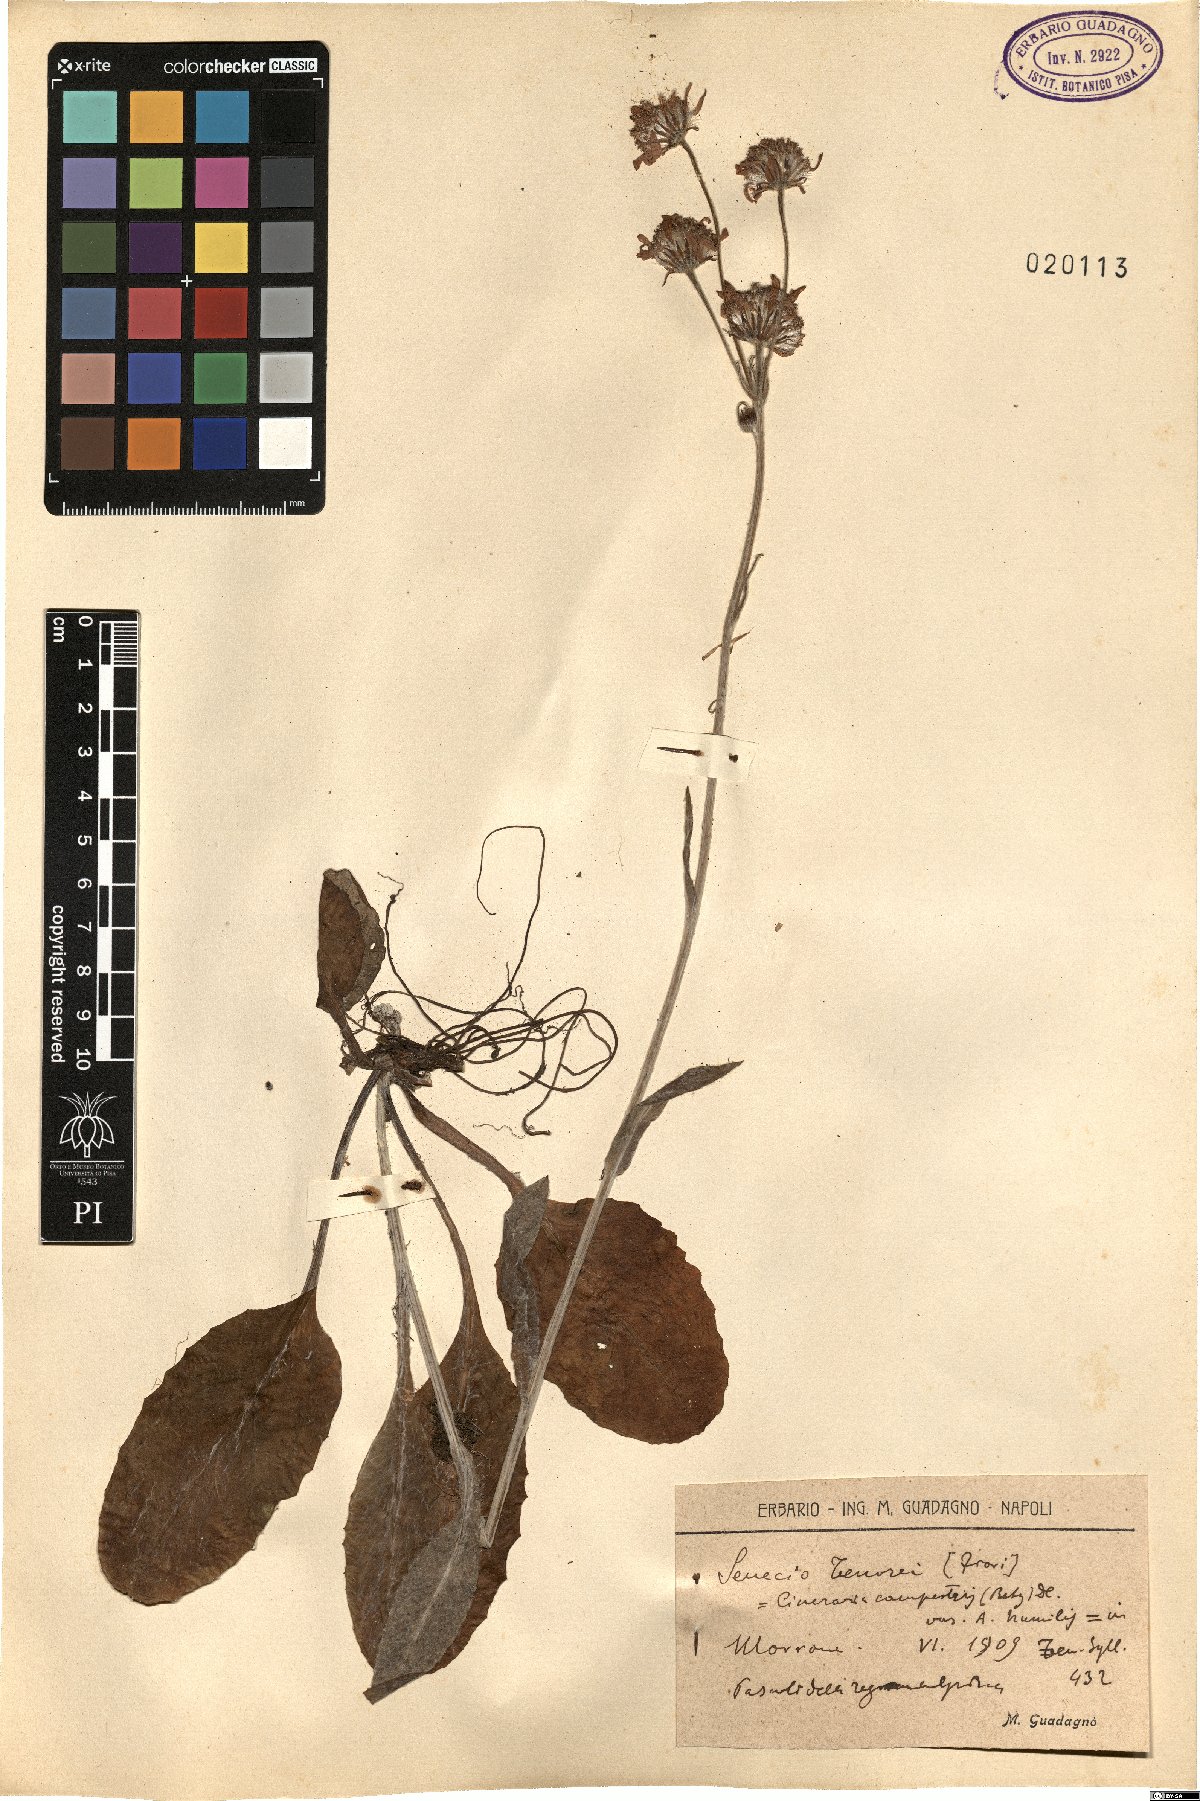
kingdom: Plantae
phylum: Tracheophyta
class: Magnoliopsida
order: Asterales
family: Asteraceae
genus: Senecio
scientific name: Senecio scopolii
